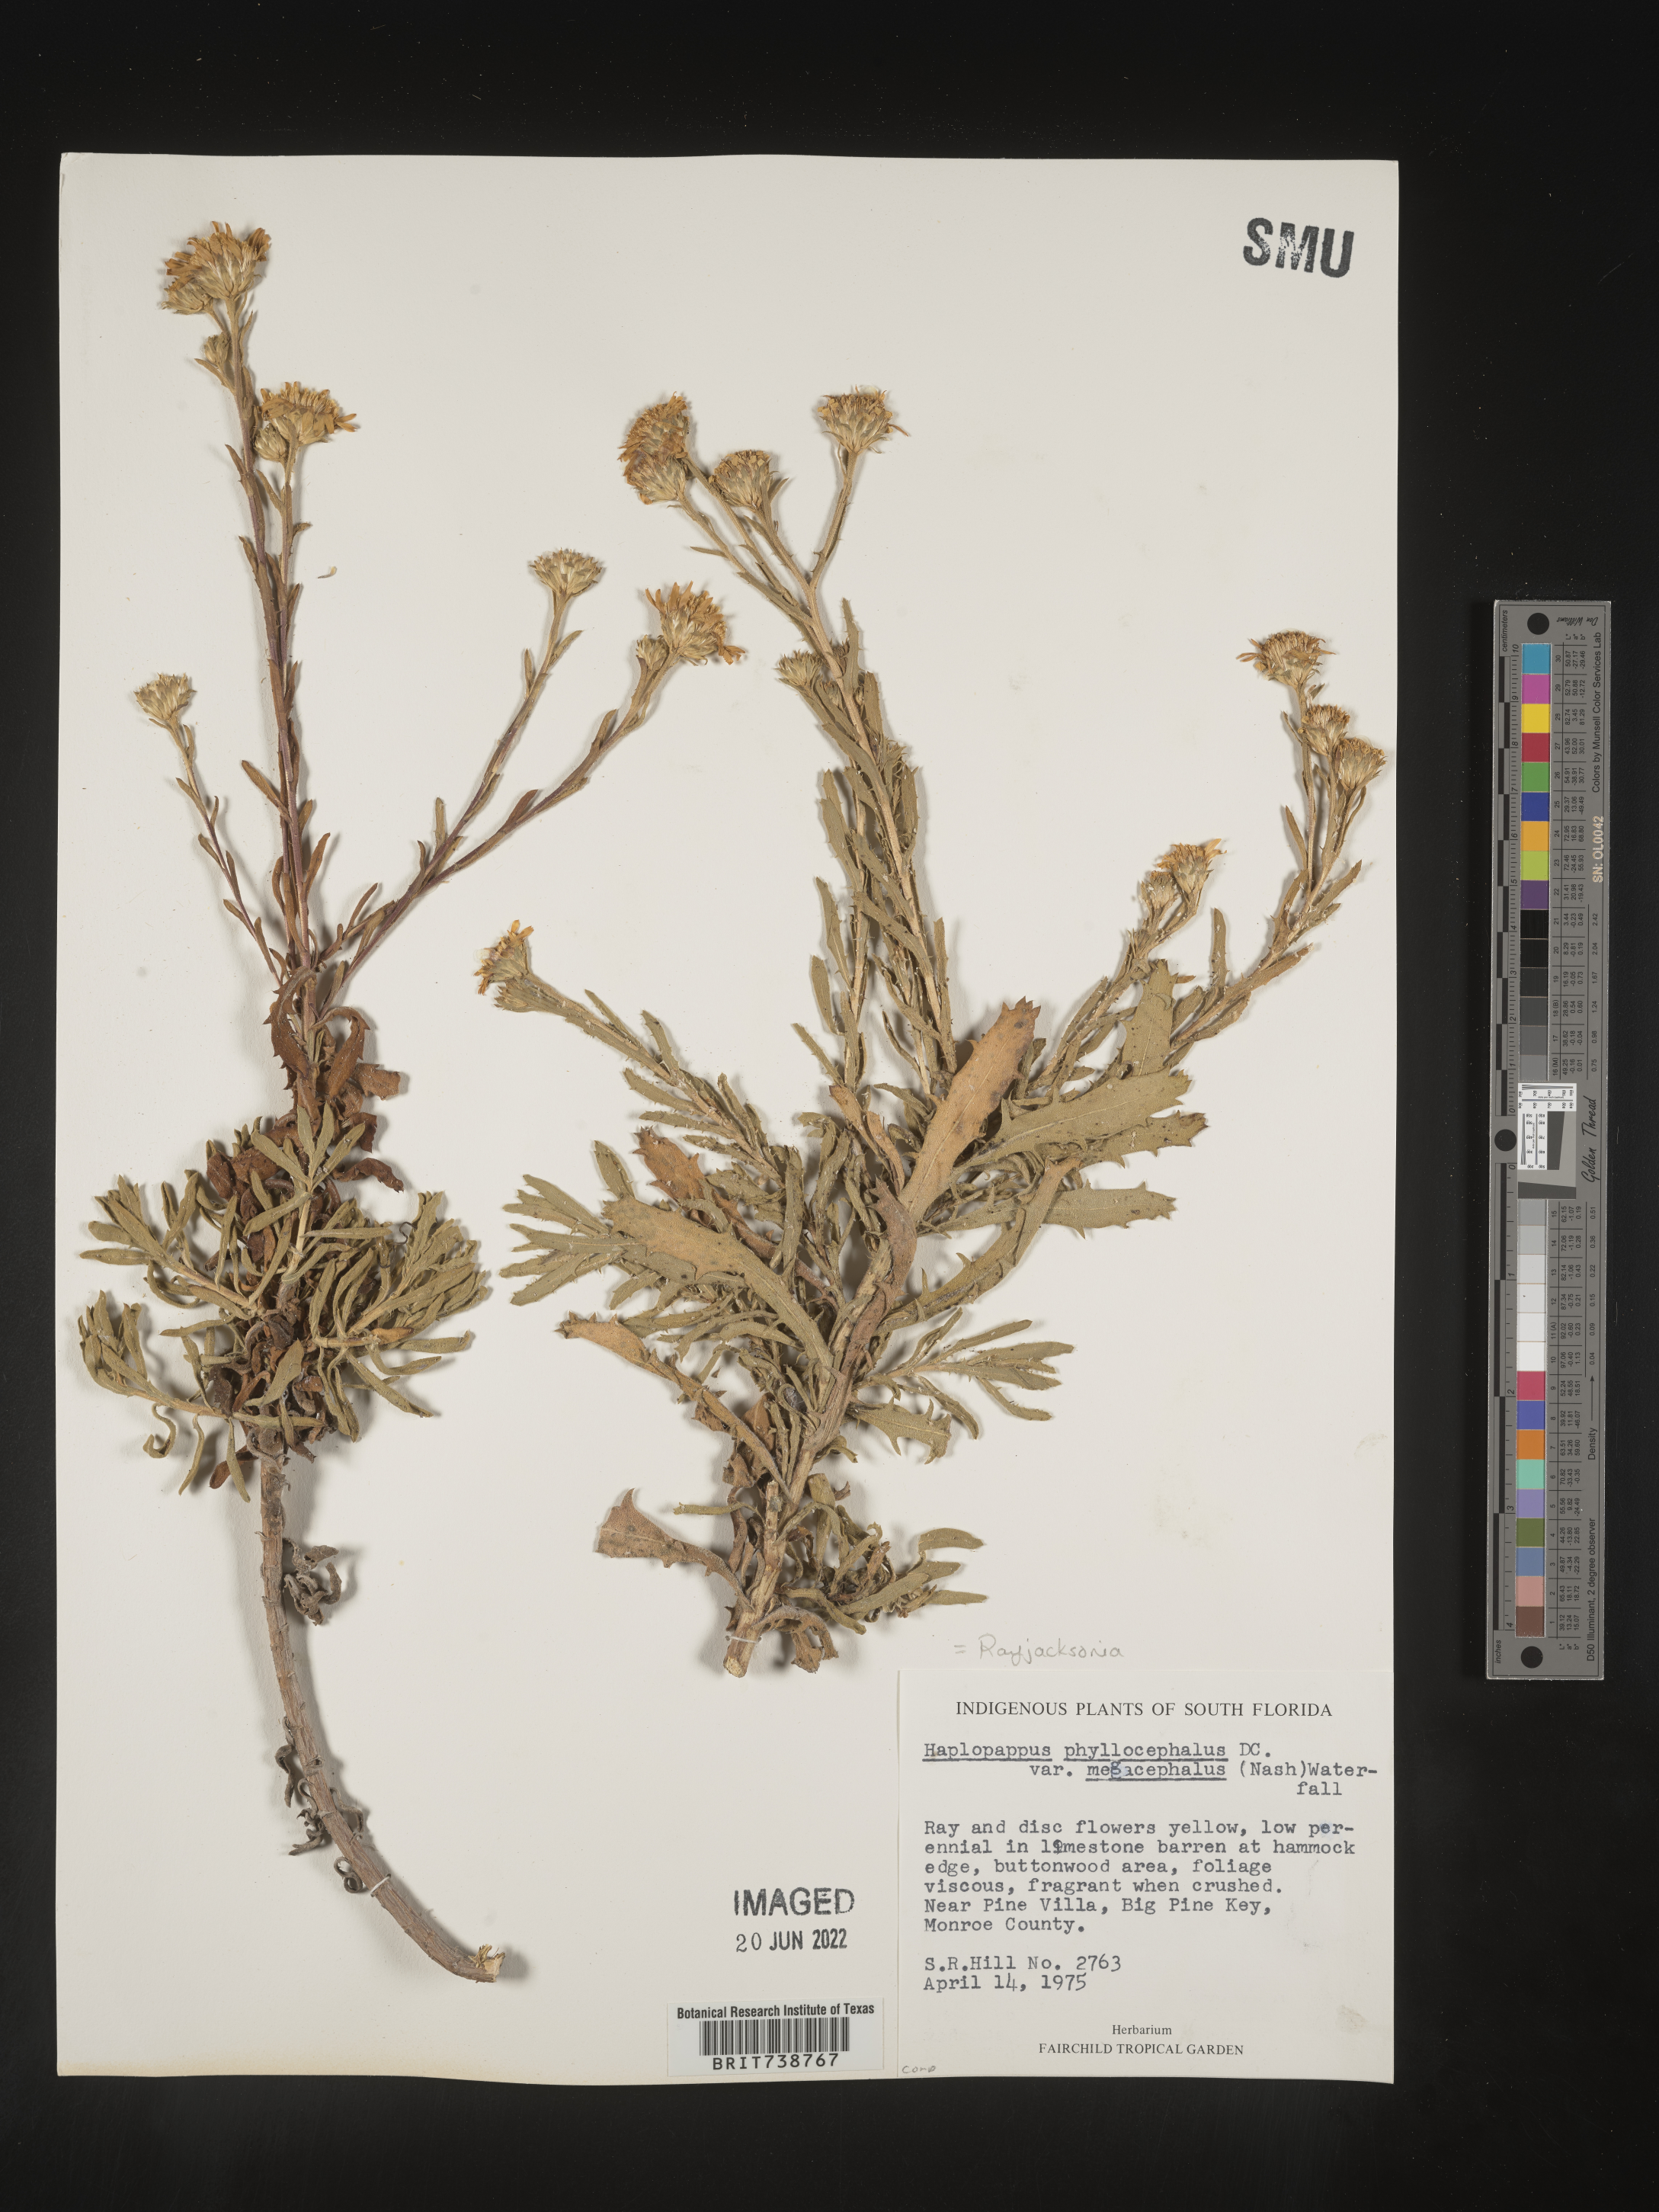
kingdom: Plantae
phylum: Tracheophyta
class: Magnoliopsida
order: Asterales
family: Asteraceae
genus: Rayjacksonia
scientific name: Rayjacksonia phyllocephala
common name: Gulf coast camphor daisy
